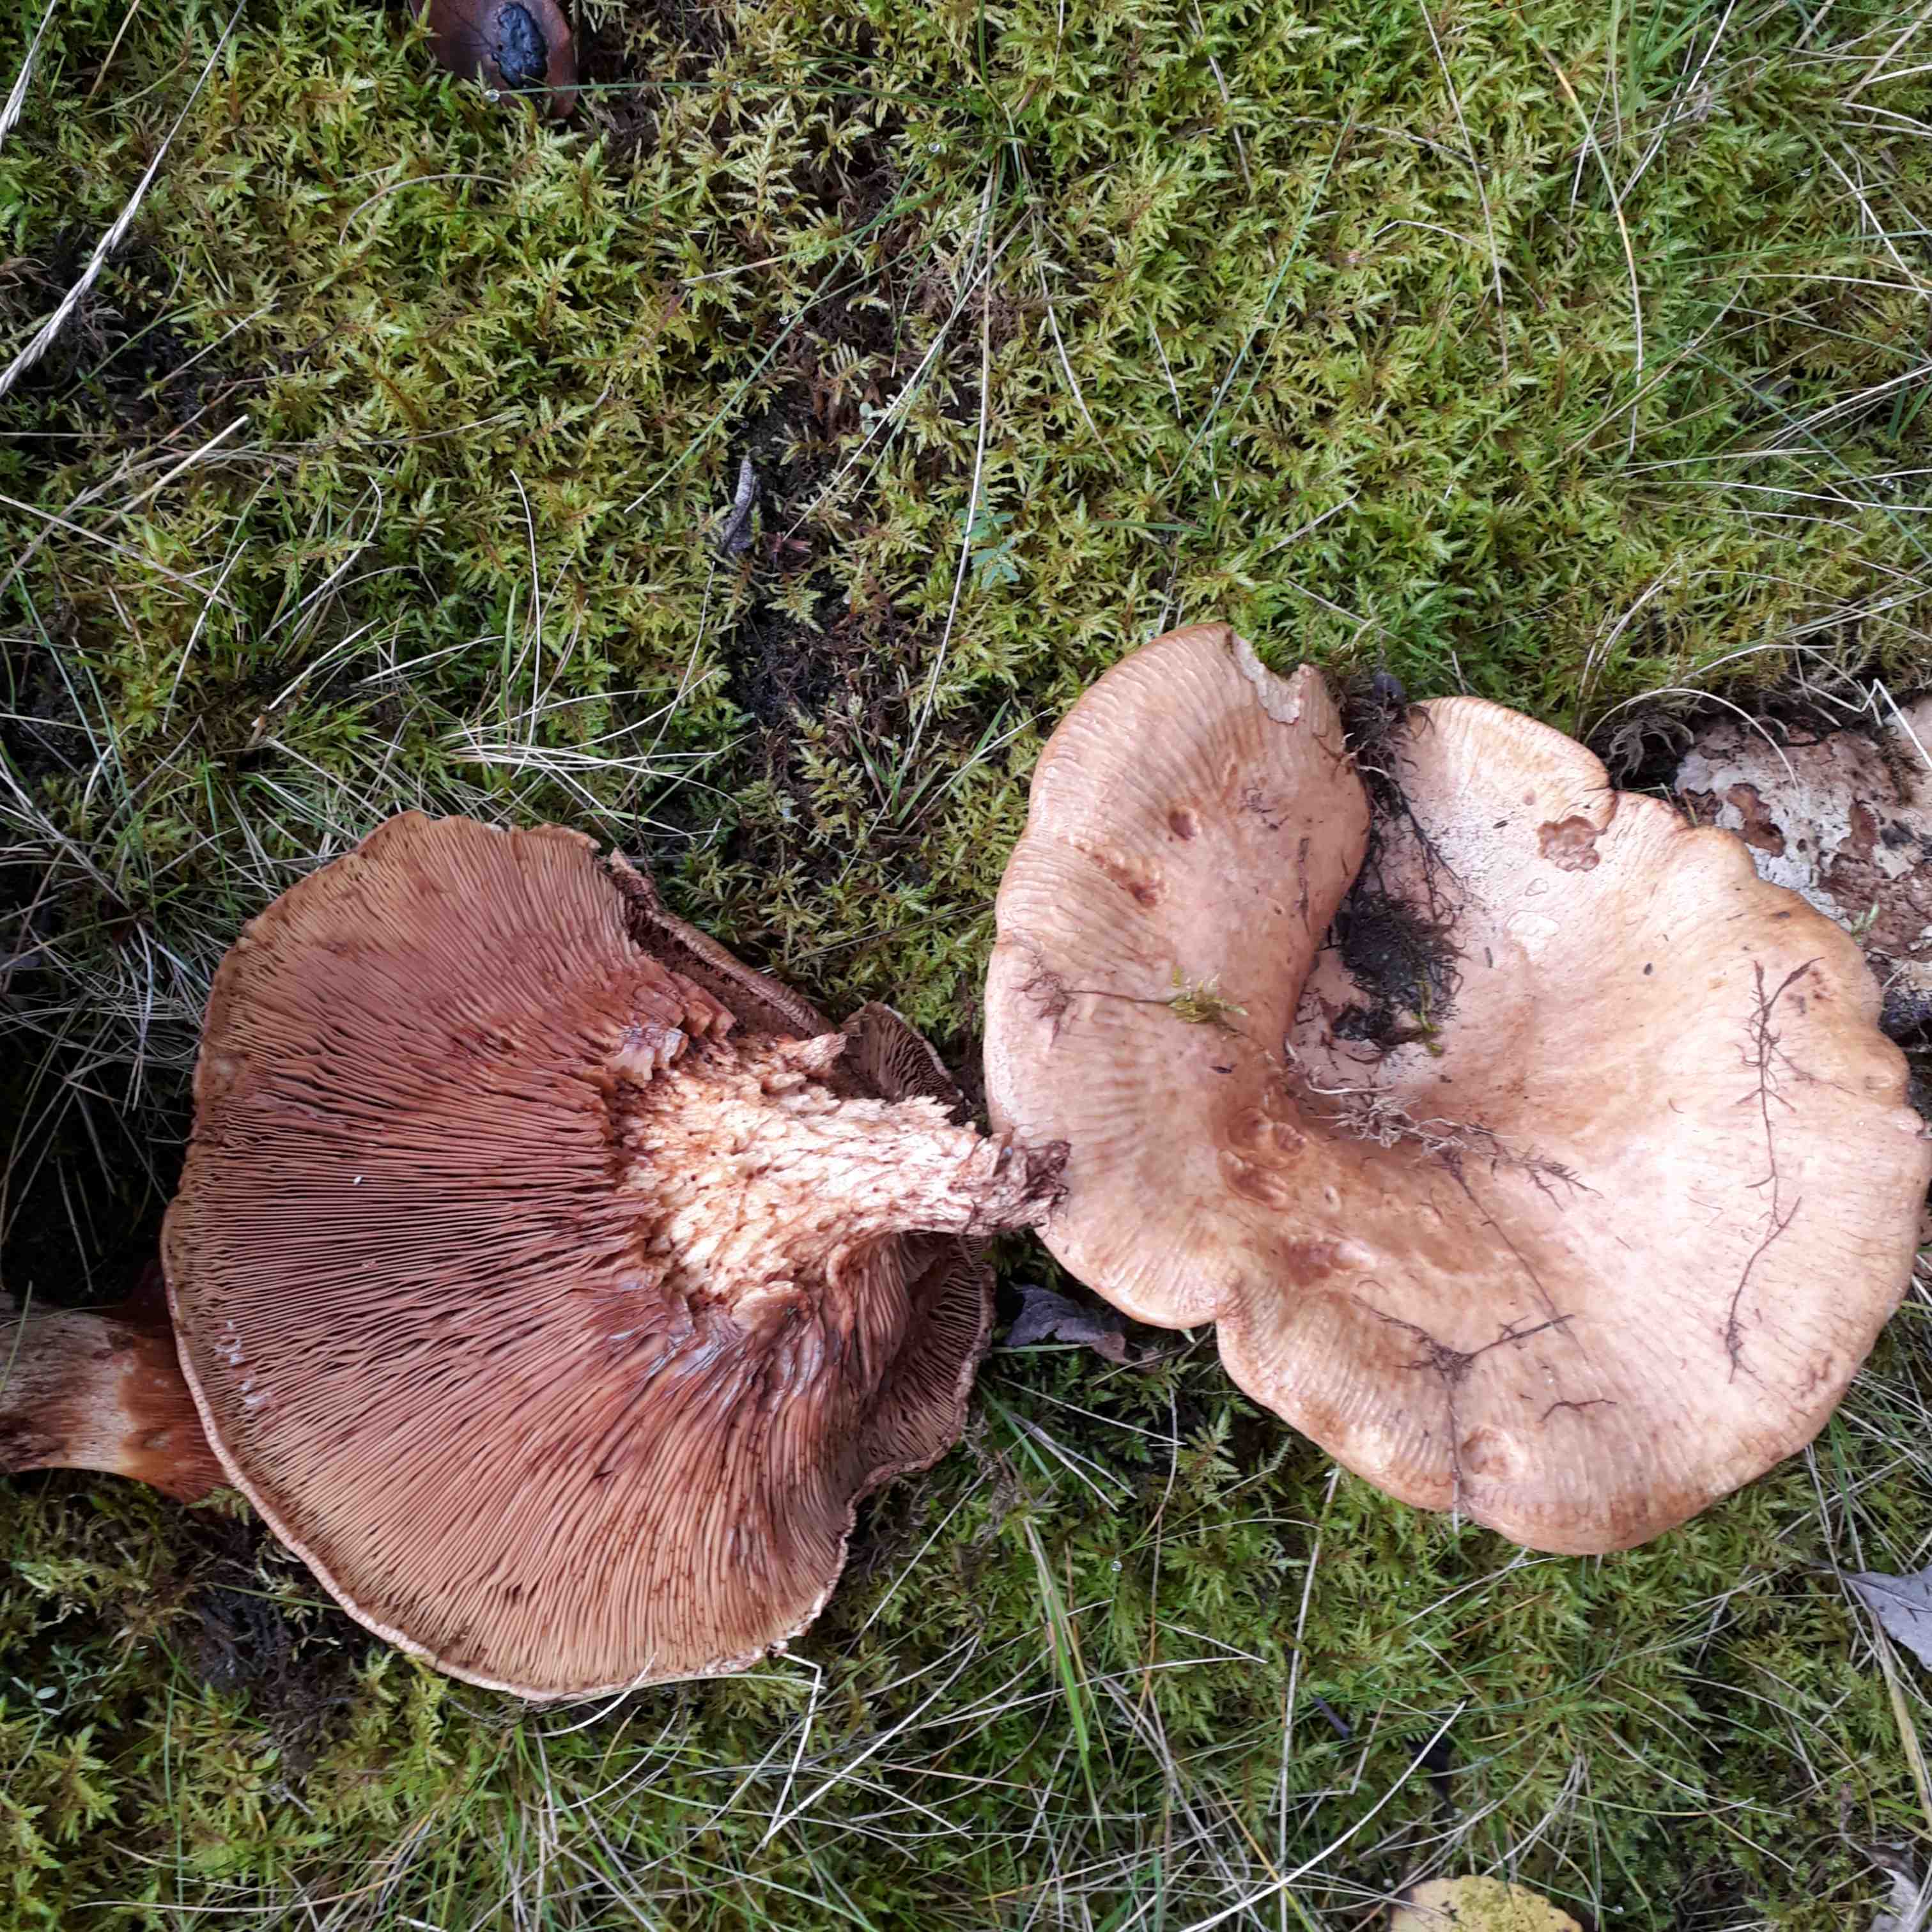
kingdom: Fungi
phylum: Basidiomycota
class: Agaricomycetes
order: Boletales
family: Paxillaceae
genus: Paxillus
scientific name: Paxillus
